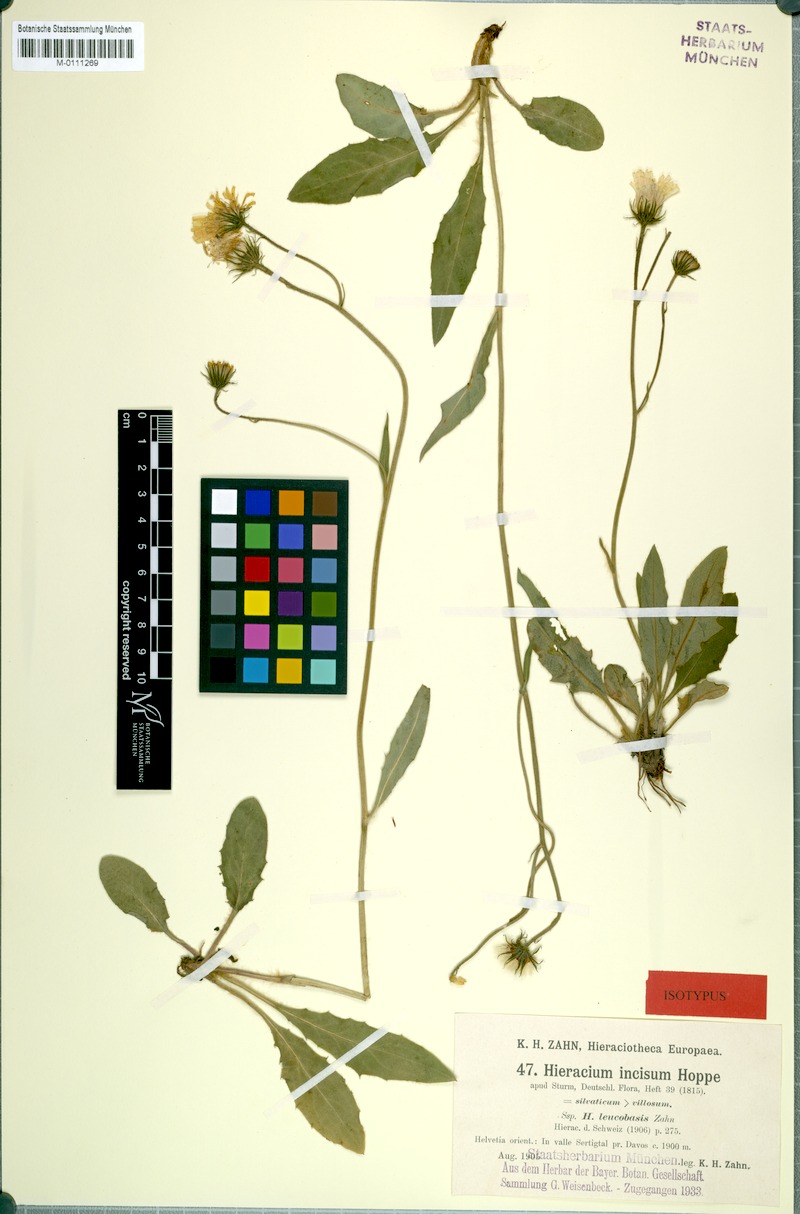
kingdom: Plantae
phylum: Tracheophyta
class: Magnoliopsida
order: Asterales
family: Asteraceae
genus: Hieracium
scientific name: Hieracium pallescens
